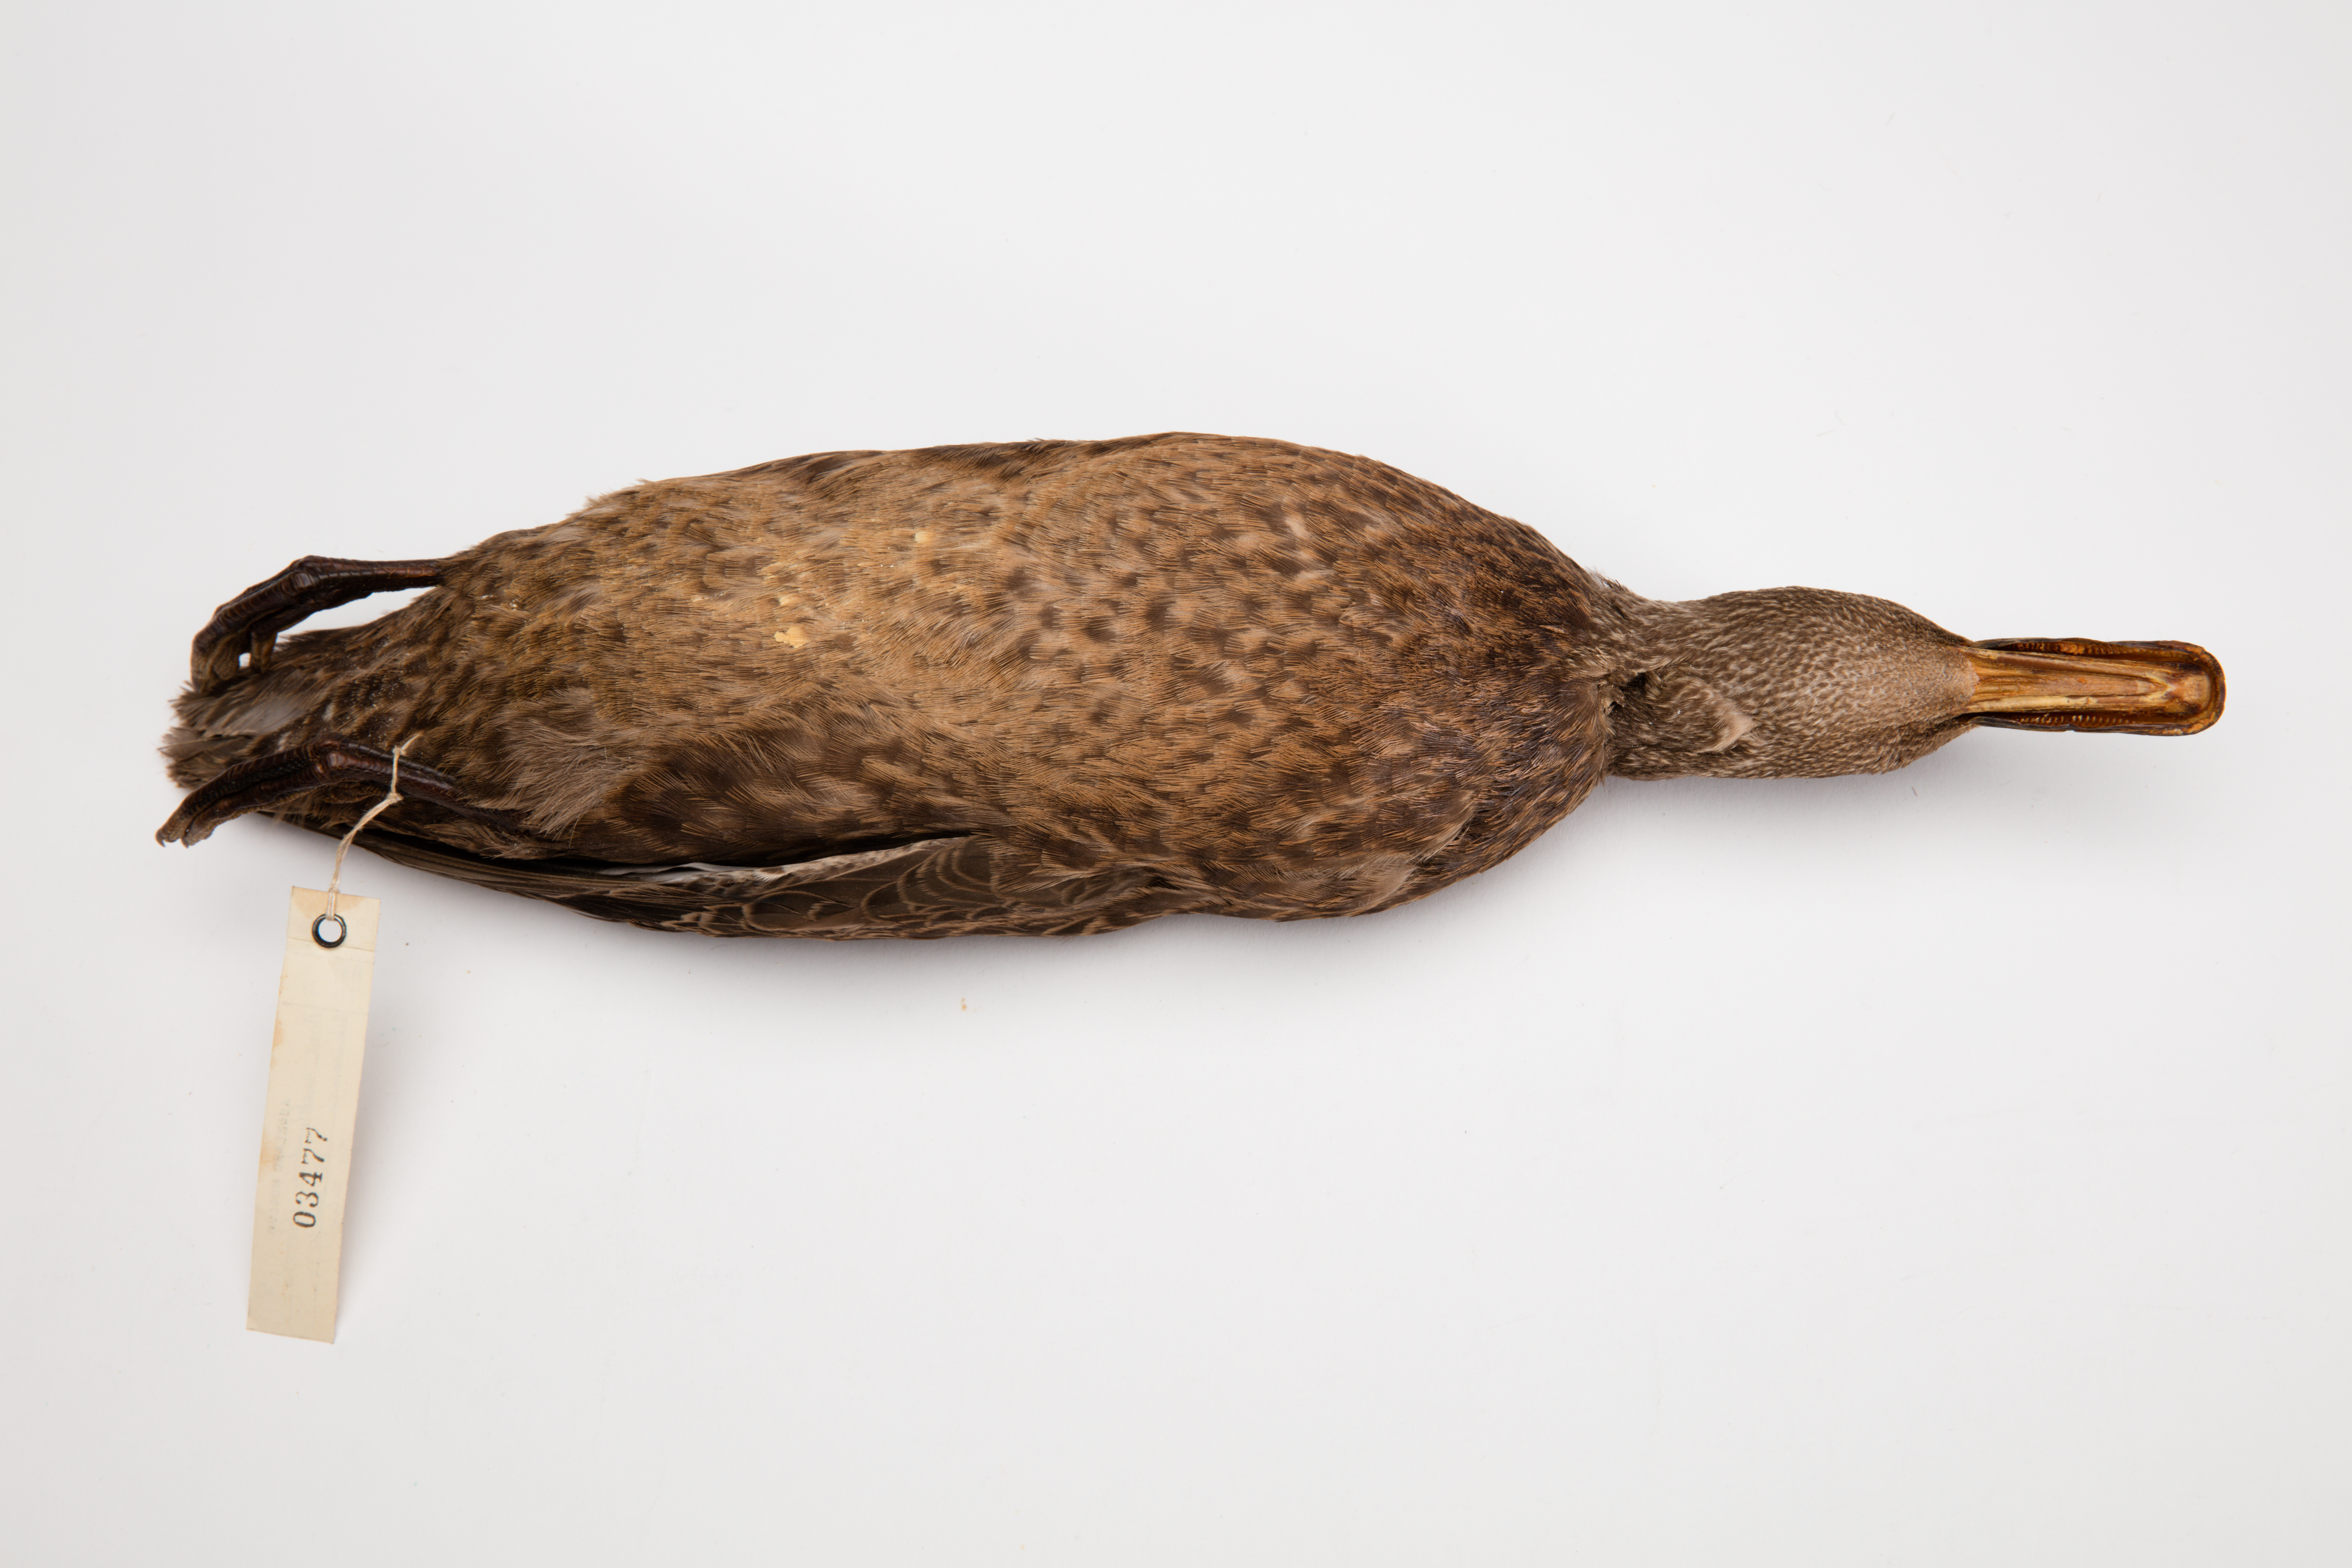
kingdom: Animalia
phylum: Chordata
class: Aves
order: Anseriformes
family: Anatidae
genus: Anas
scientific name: Anas chlorotis
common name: Brown teal
